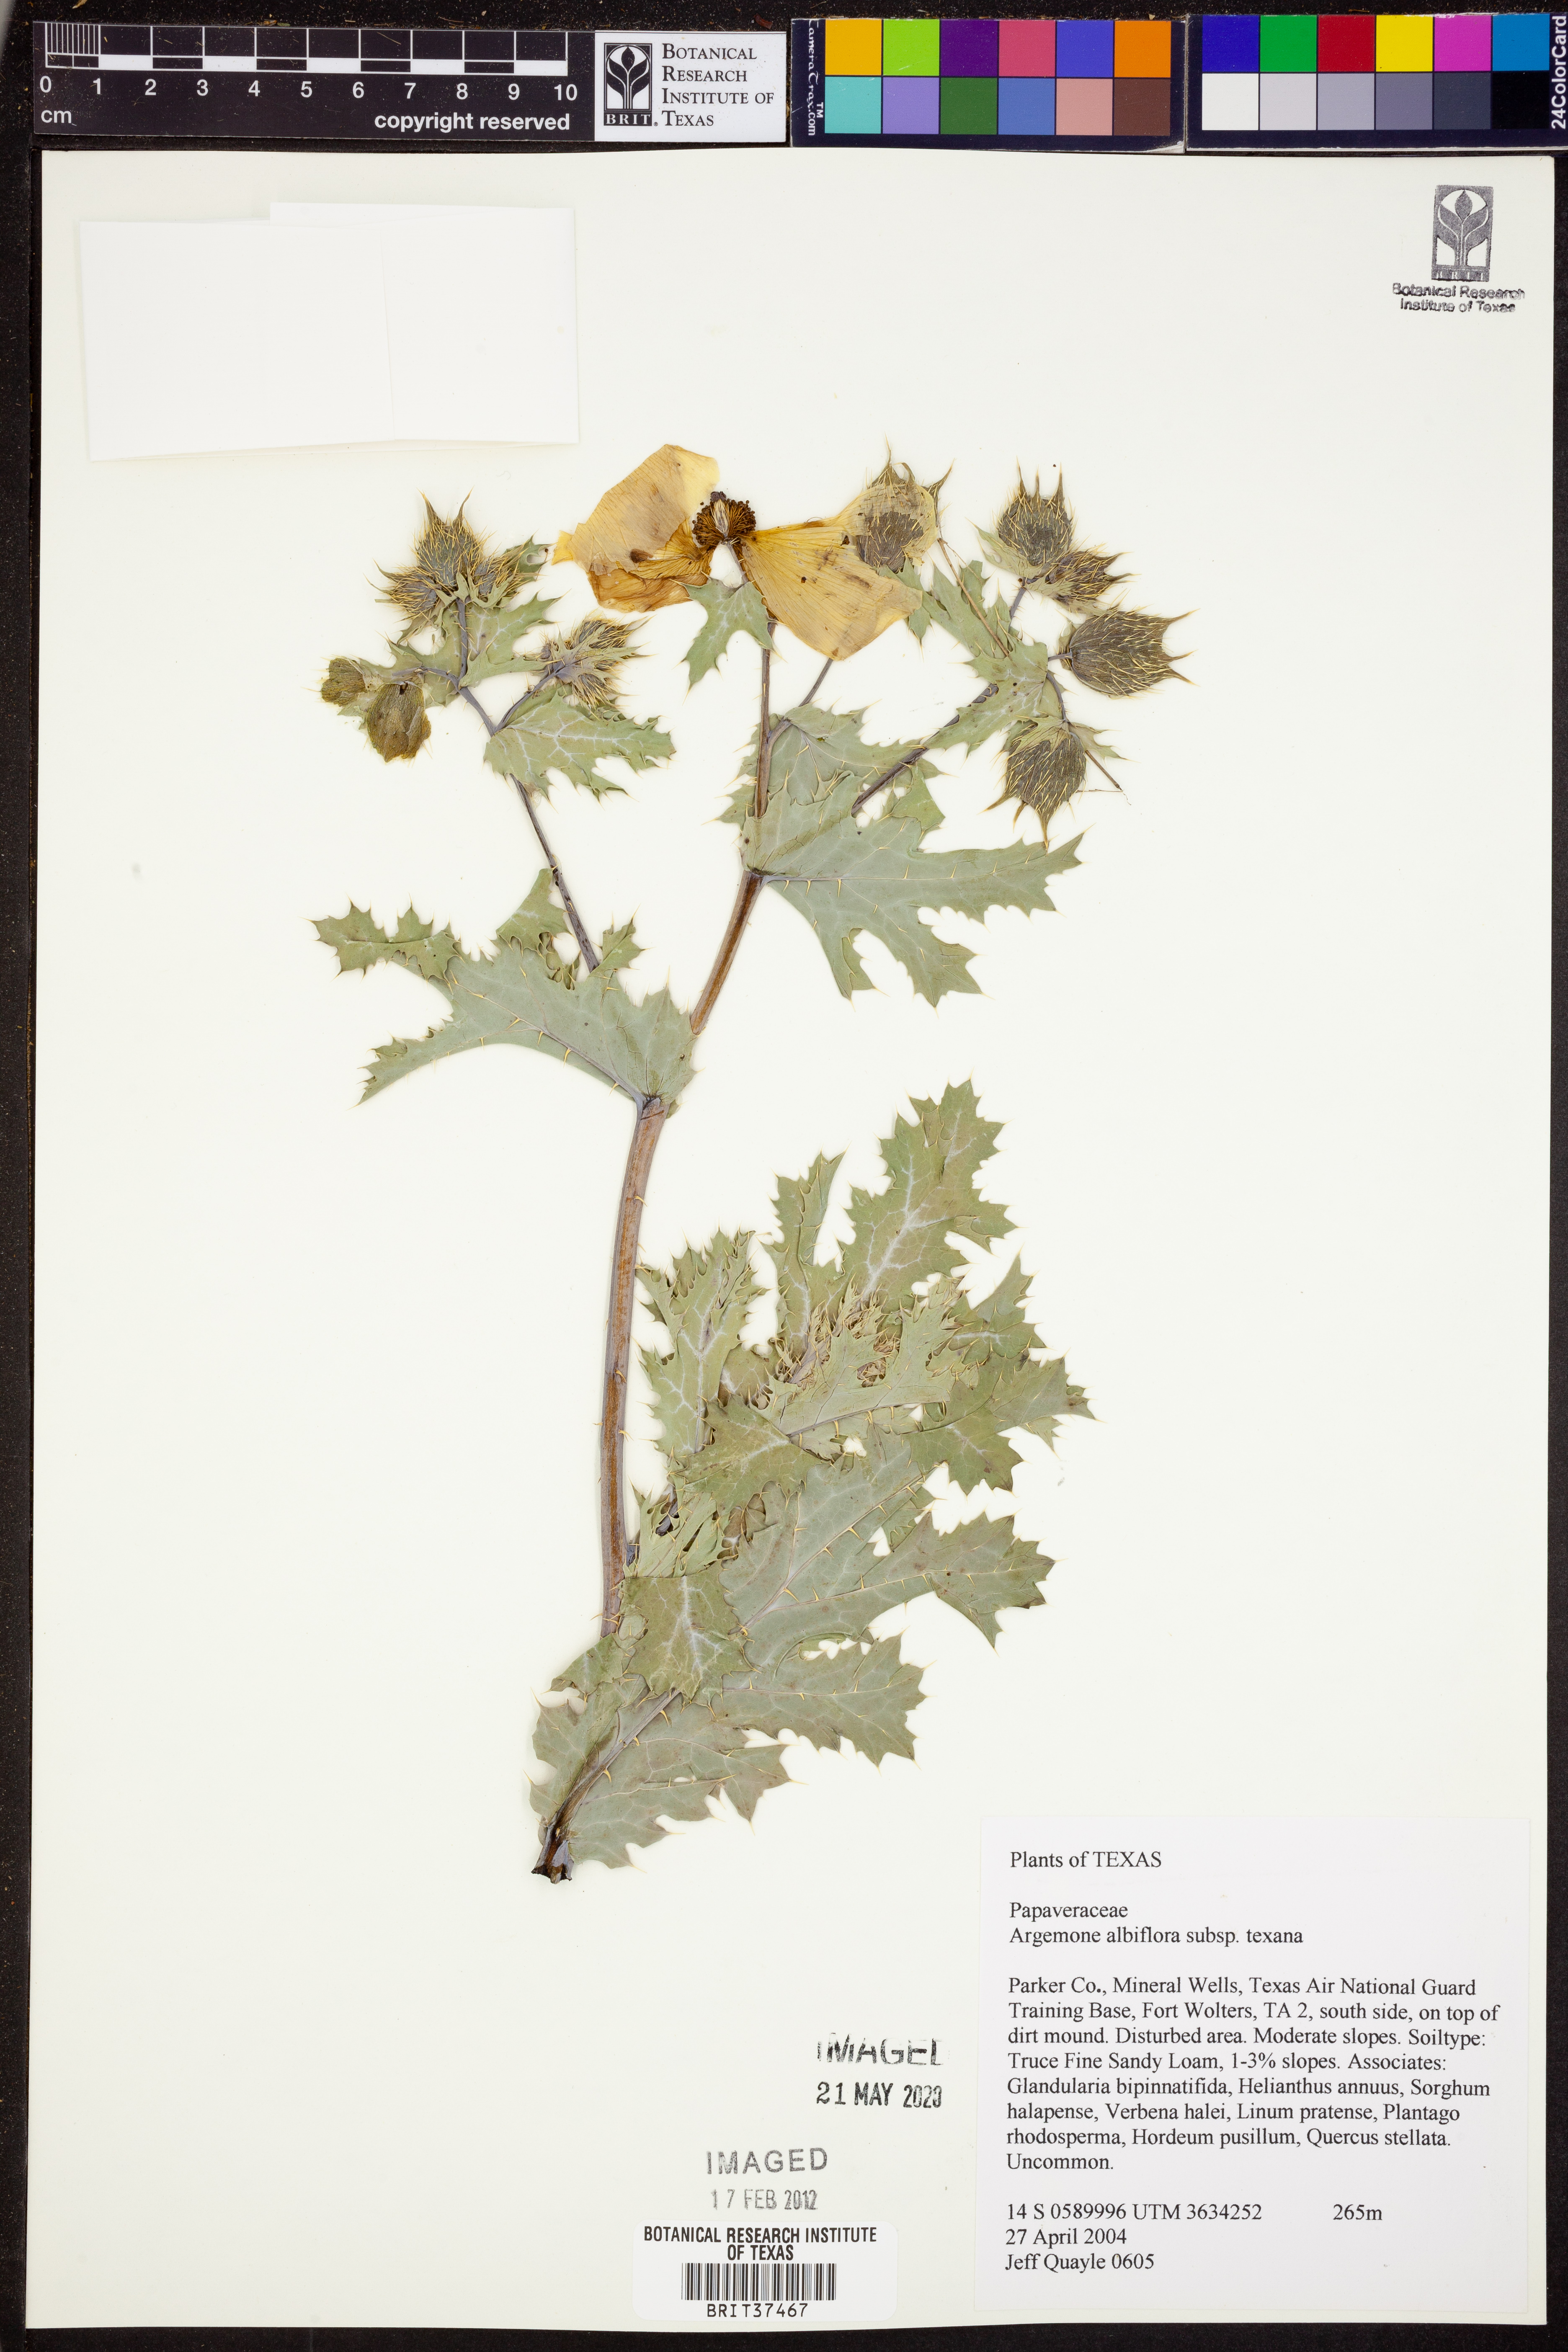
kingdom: Plantae
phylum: Tracheophyta
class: Magnoliopsida
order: Ranunculales
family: Papaveraceae
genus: Argemone
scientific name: Argemone albiflora
